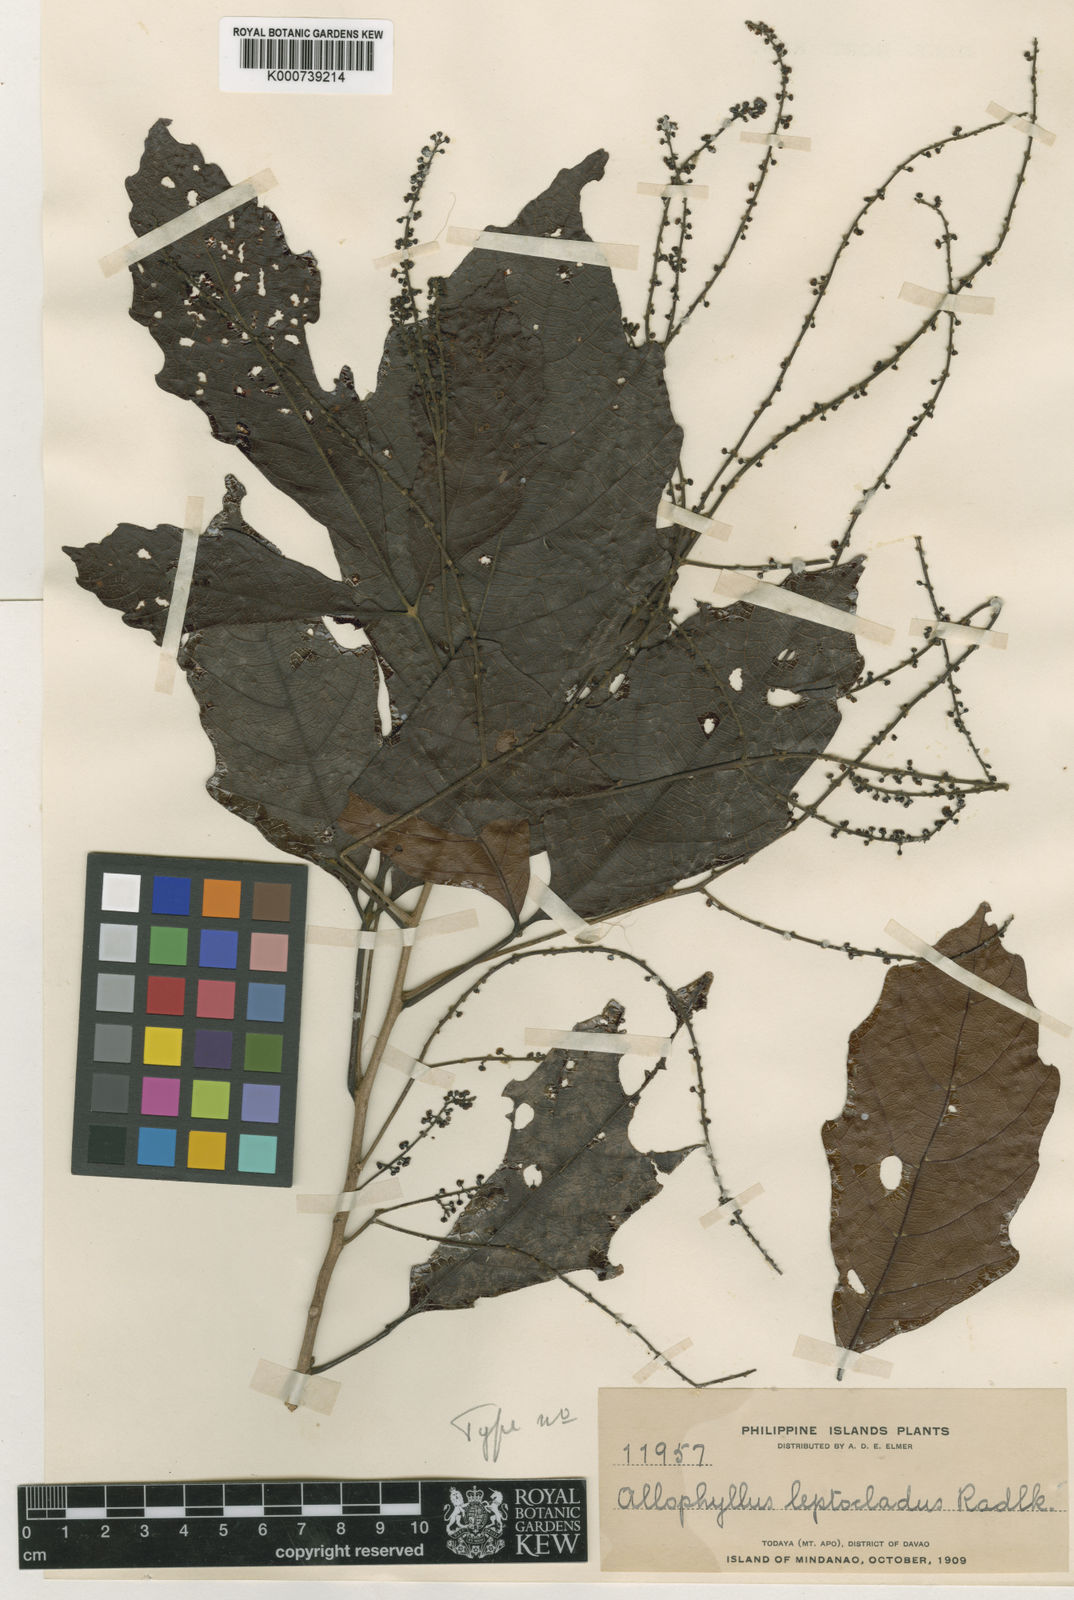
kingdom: Plantae
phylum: Tracheophyta
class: Magnoliopsida
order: Sapindales
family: Sapindaceae
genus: Allophylus
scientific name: Allophylus leptocladus
